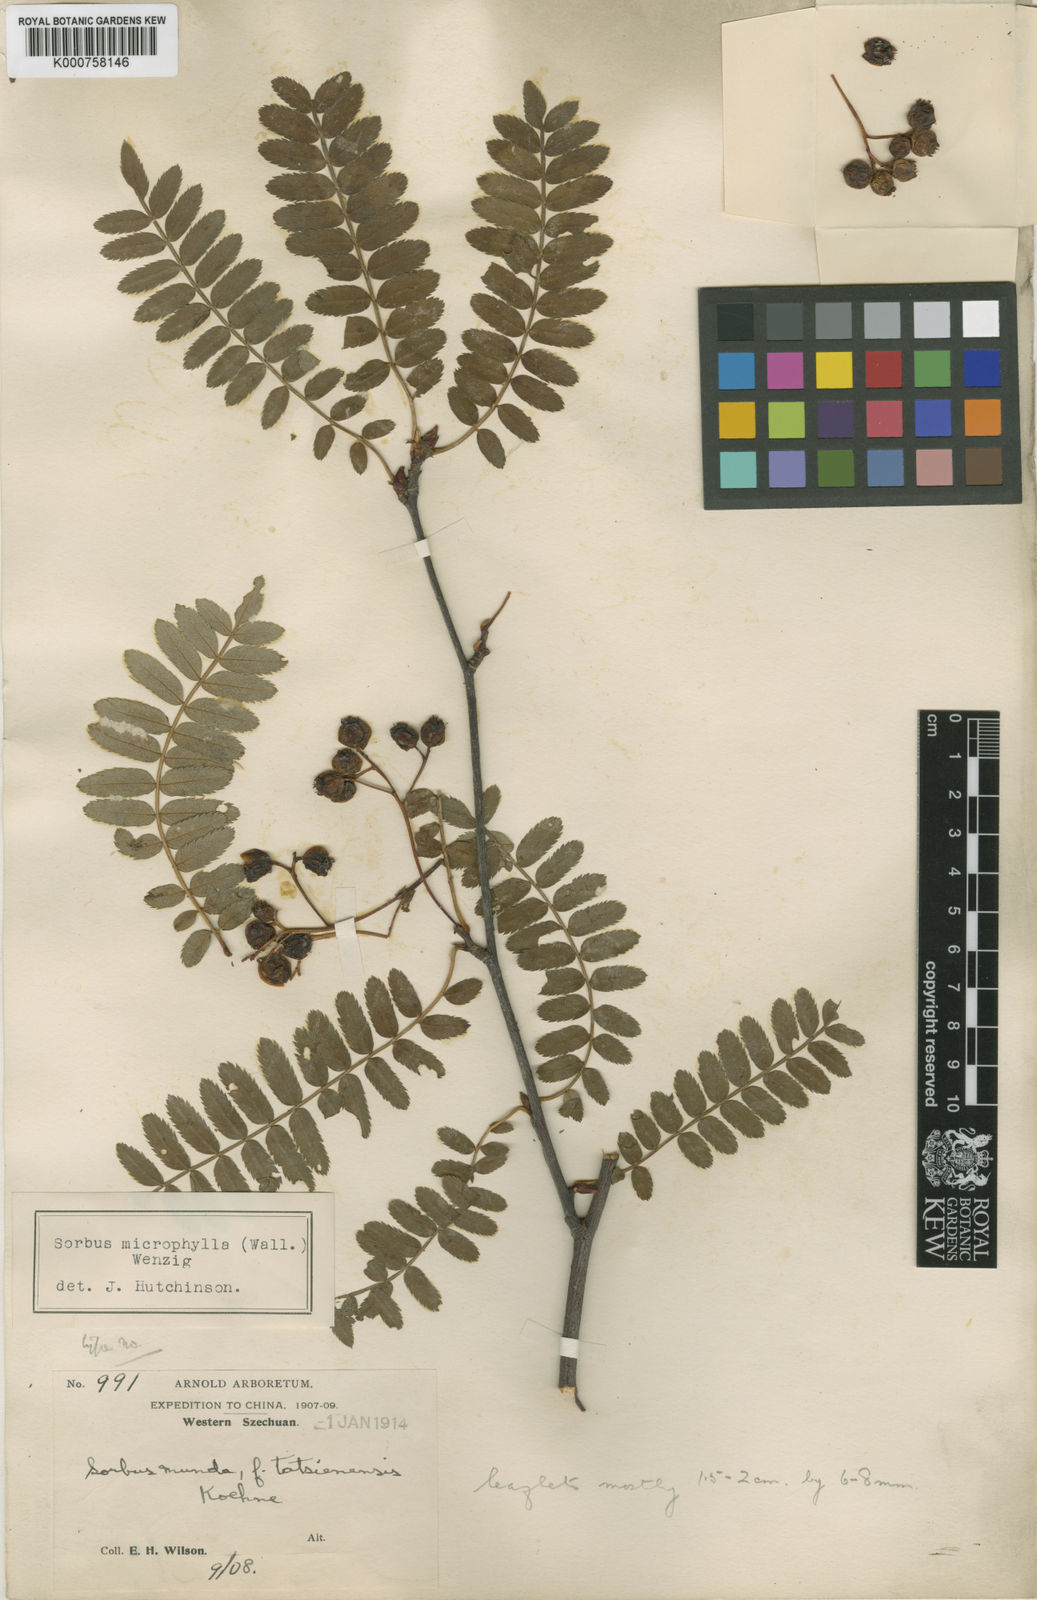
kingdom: Plantae
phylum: Tracheophyta
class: Magnoliopsida
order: Rosales
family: Rosaceae
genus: Sorbus
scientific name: Sorbus prattii
